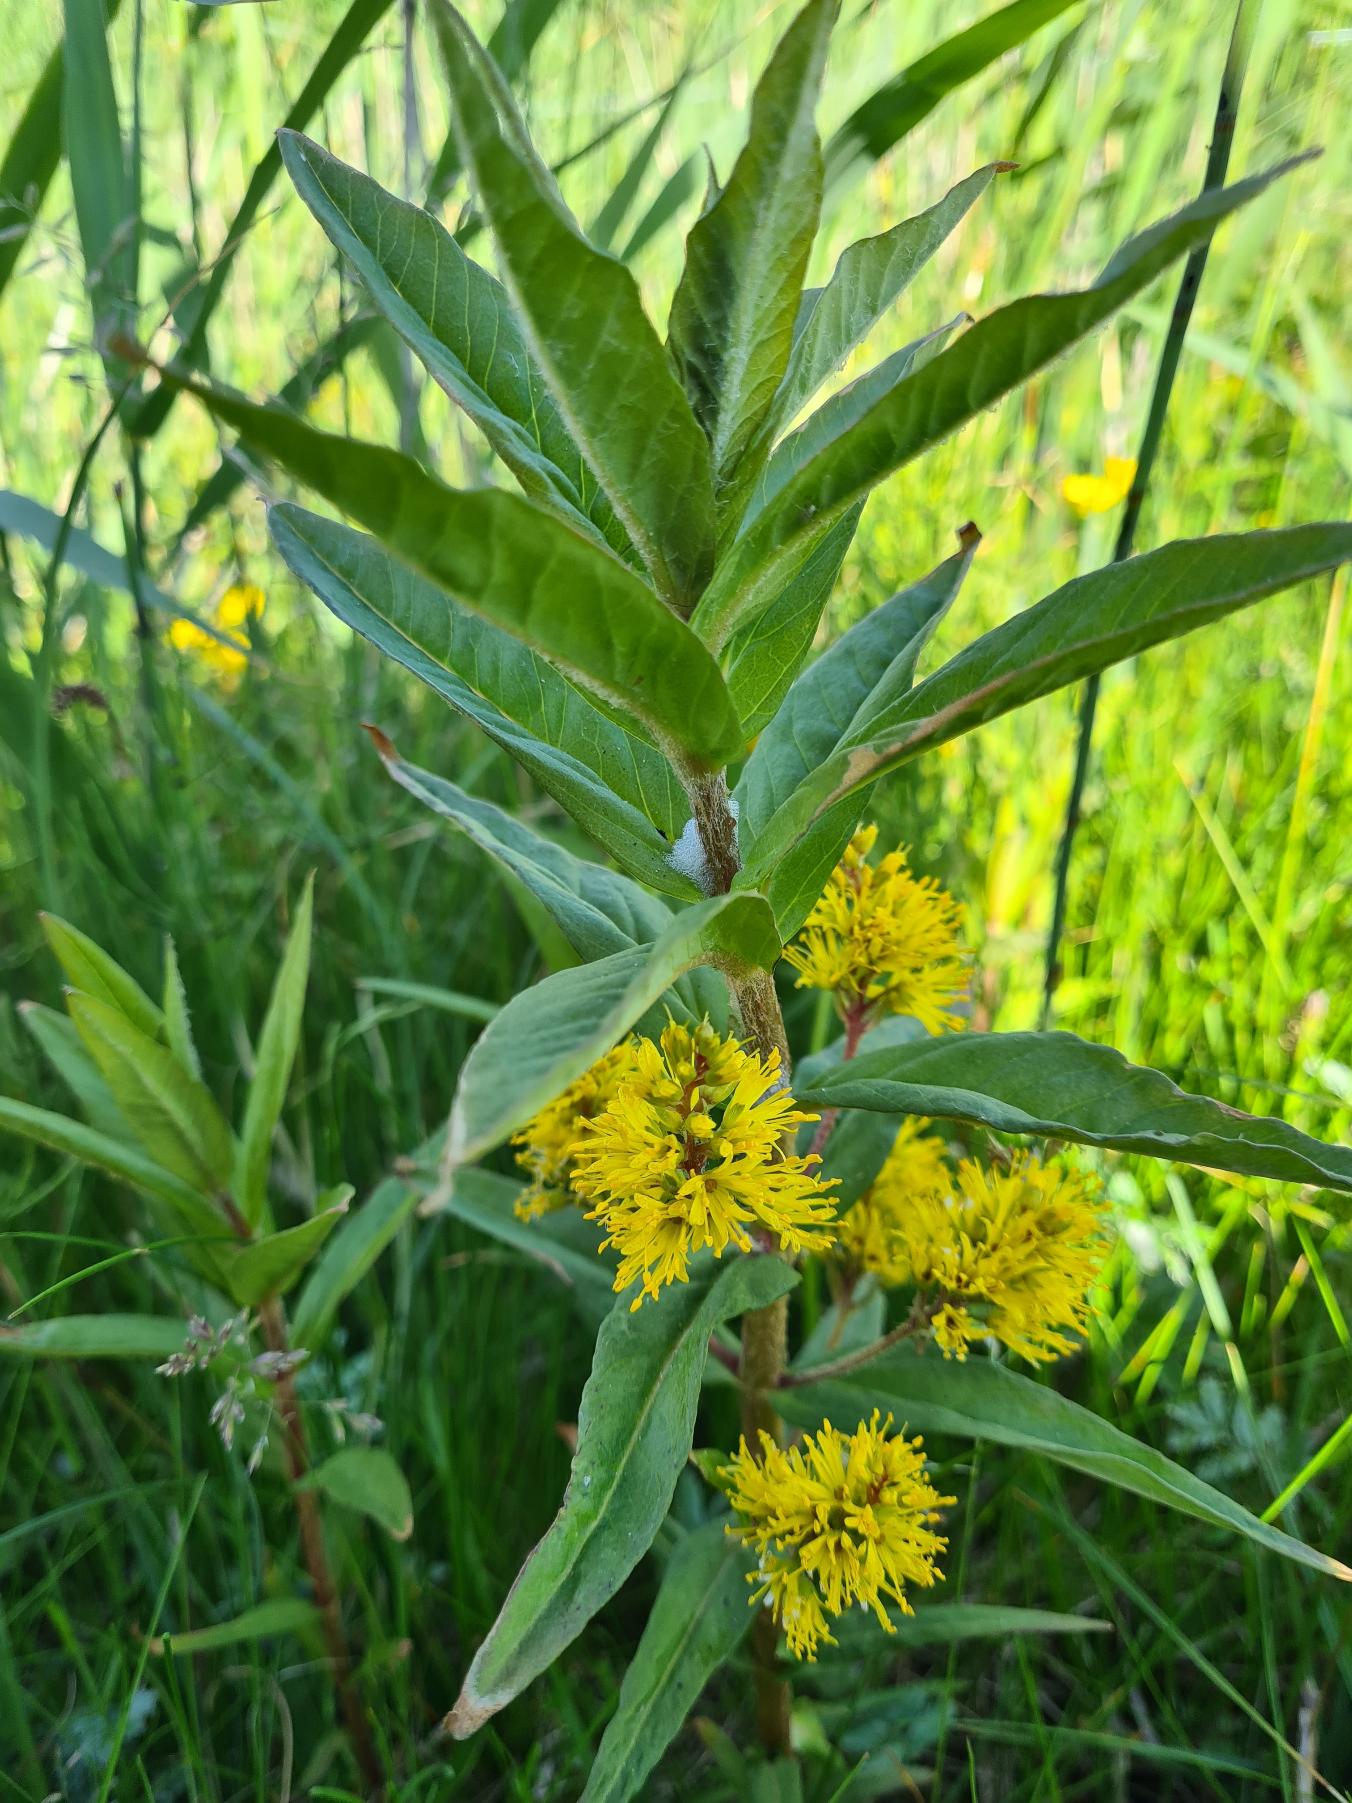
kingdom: Plantae
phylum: Tracheophyta
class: Magnoliopsida
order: Ericales
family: Primulaceae
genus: Lysimachia
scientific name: Lysimachia thyrsiflora
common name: Dusk-fredløs
